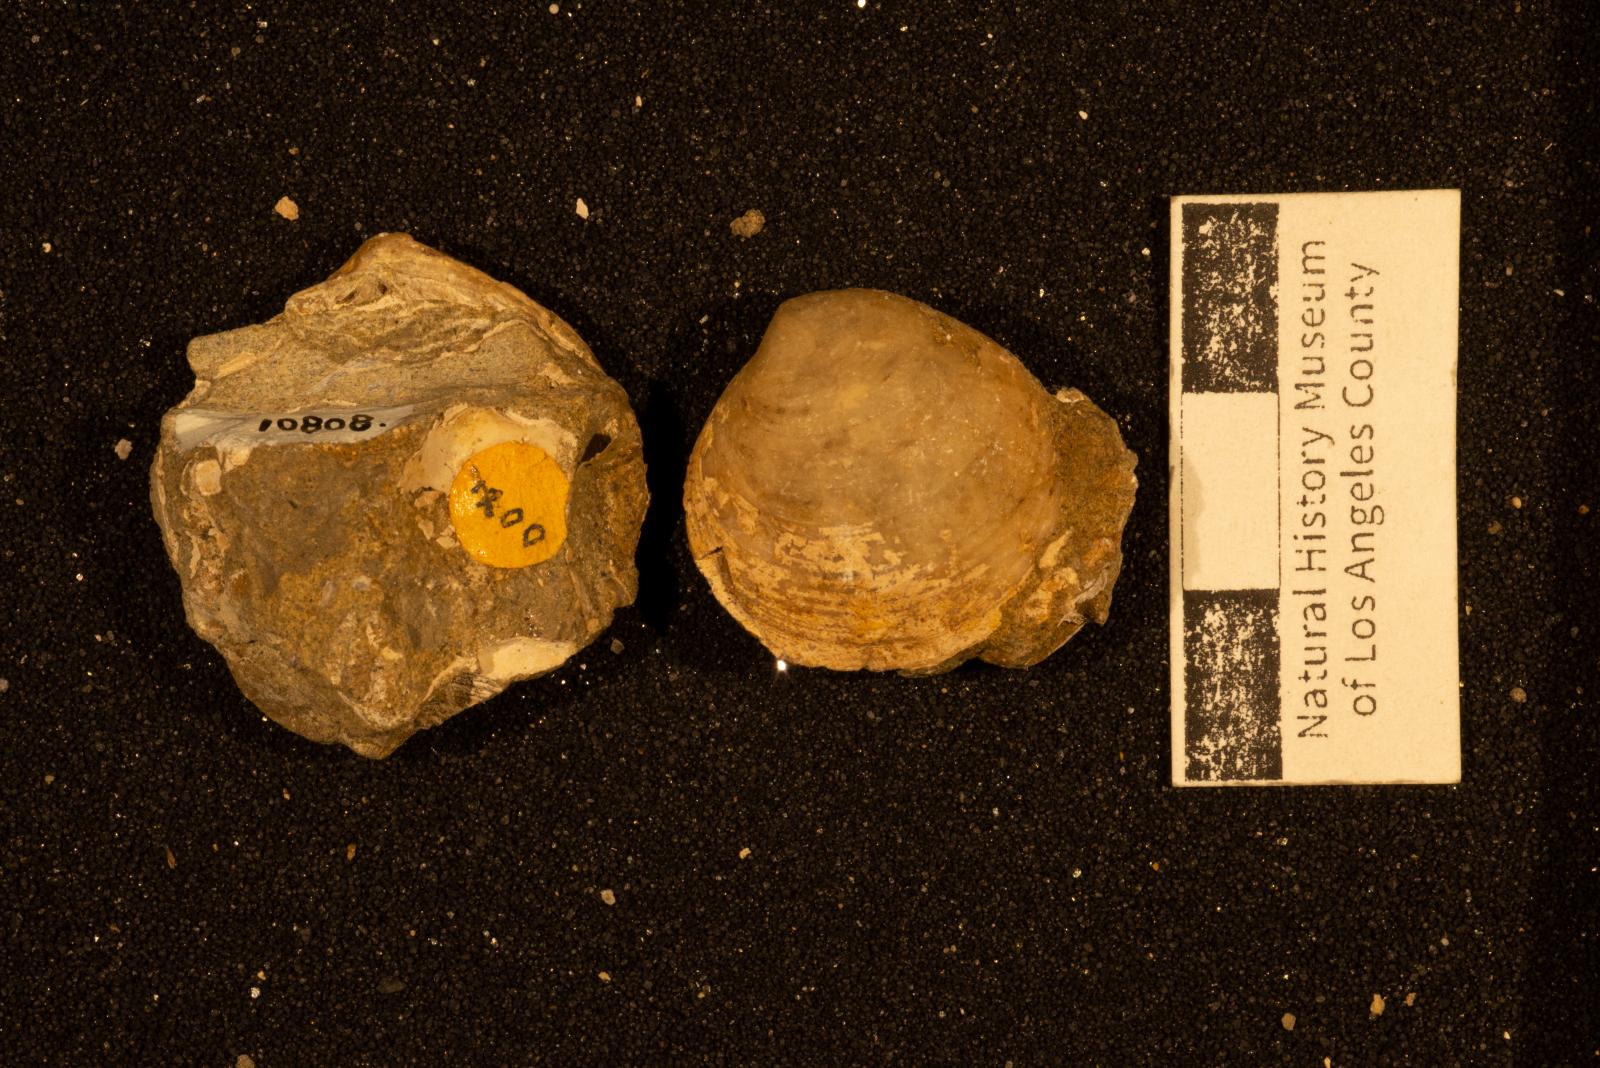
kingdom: Animalia
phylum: Mollusca
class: Bivalvia
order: Venerida
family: Veneridae
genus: Paraesa
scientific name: Paraesa
